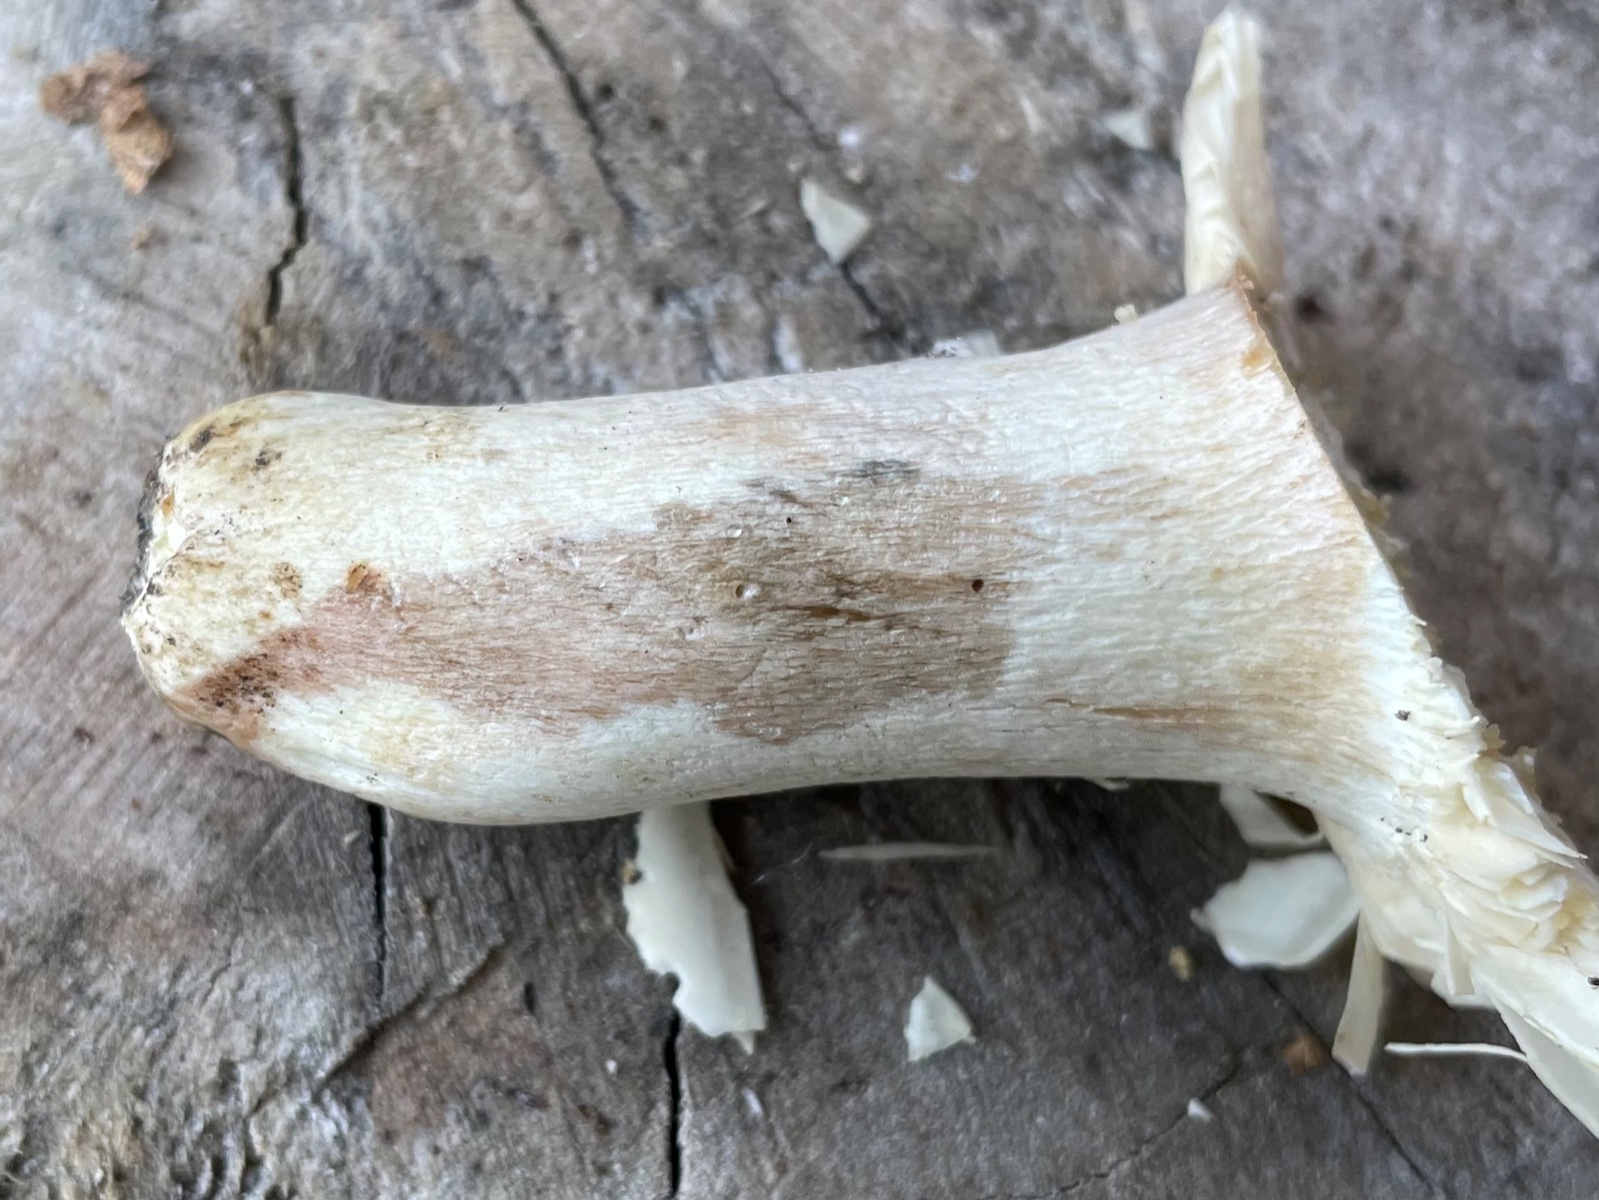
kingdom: Fungi
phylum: Basidiomycota
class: Agaricomycetes
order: Russulales
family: Russulaceae
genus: Russula
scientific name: Russula
